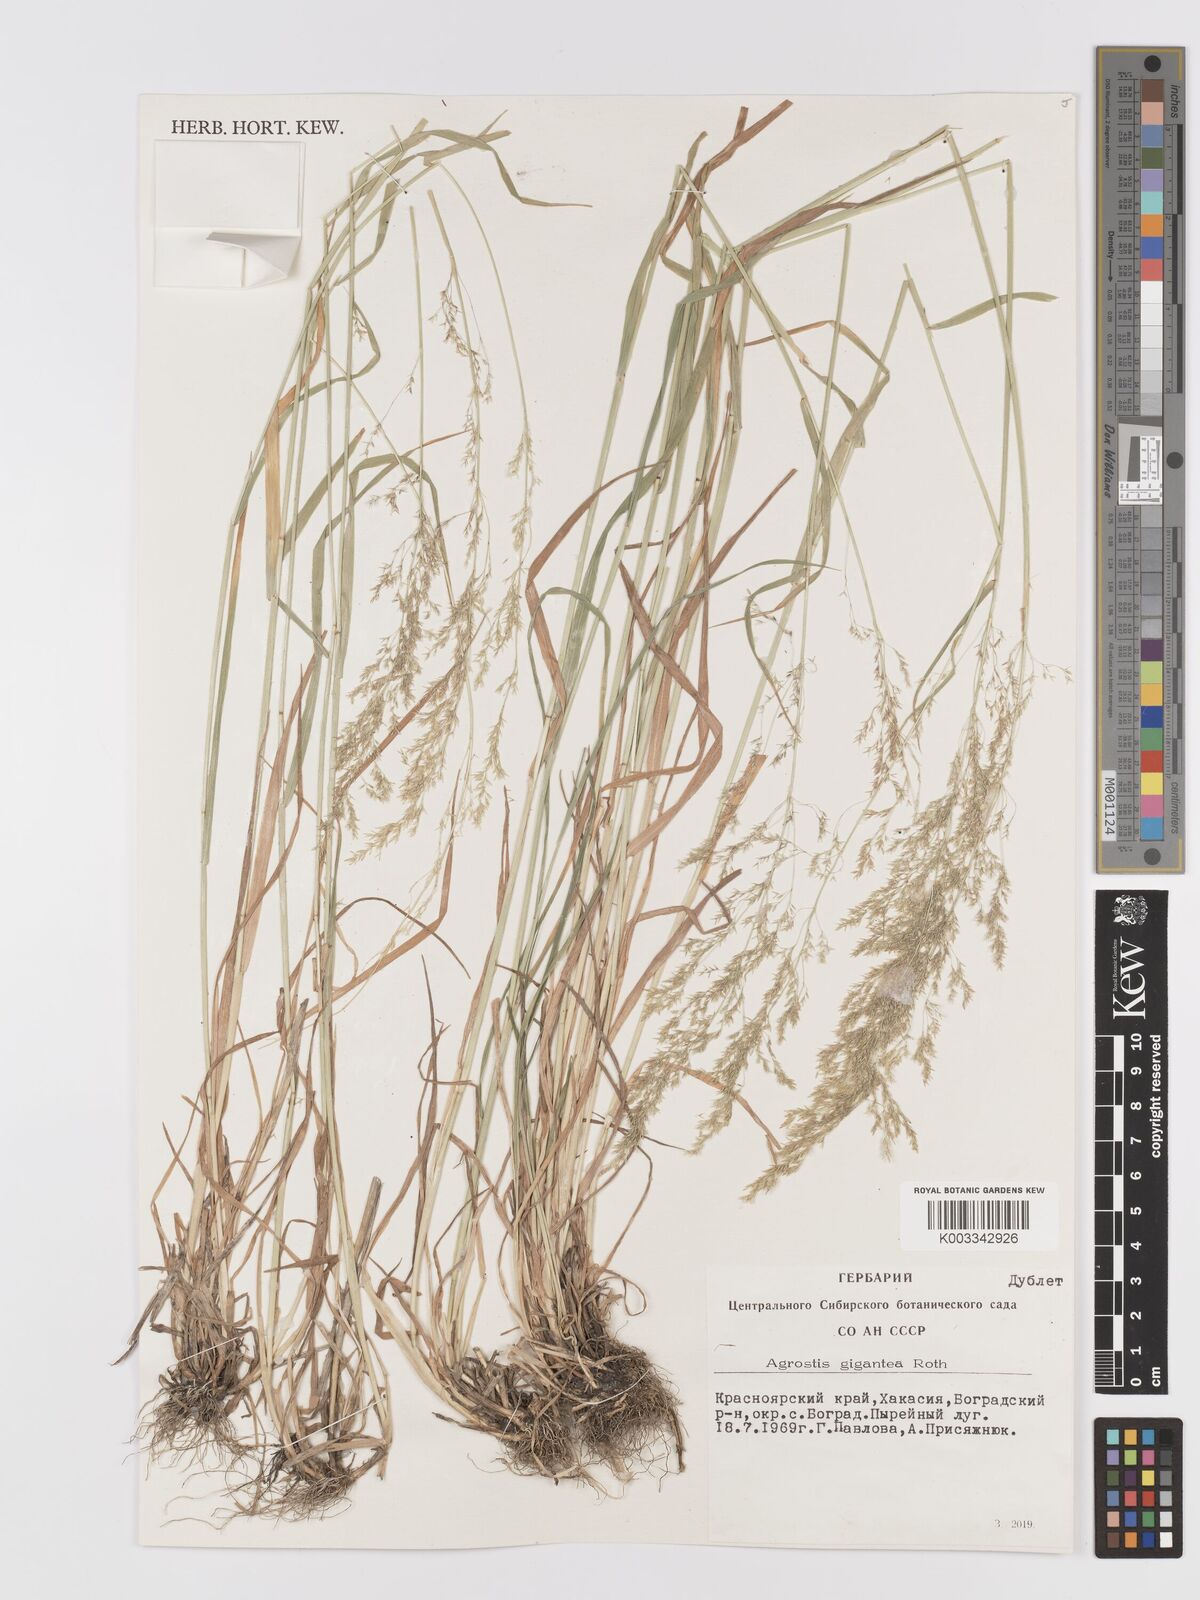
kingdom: Plantae
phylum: Tracheophyta
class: Liliopsida
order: Poales
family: Poaceae
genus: Agrostis
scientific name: Agrostis gigantea
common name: Black bent
